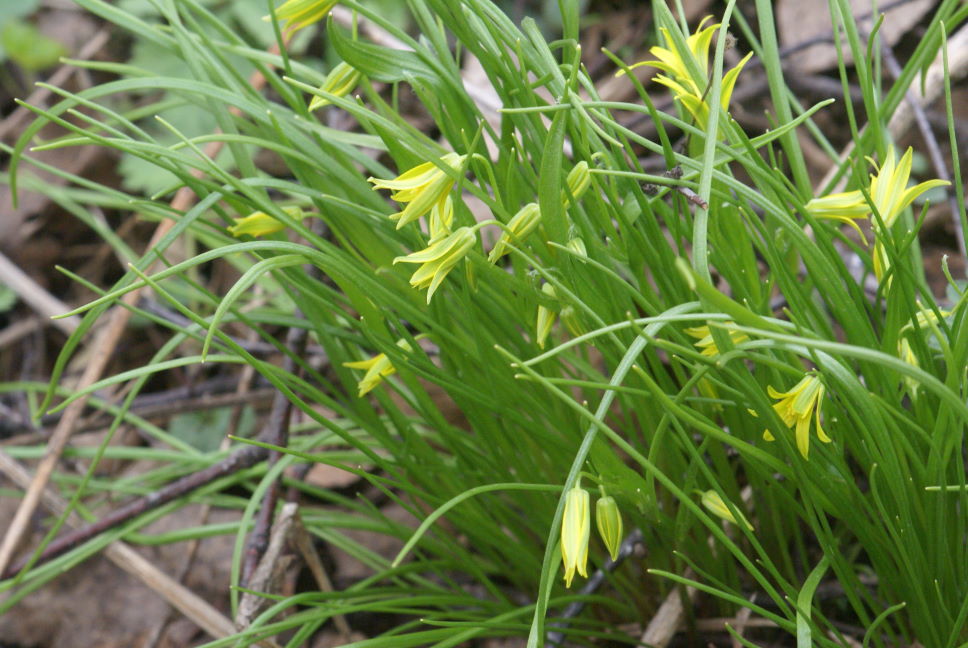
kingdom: Plantae
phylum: Tracheophyta
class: Liliopsida
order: Liliales
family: Liliaceae
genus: Gagea
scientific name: Gagea lutea
